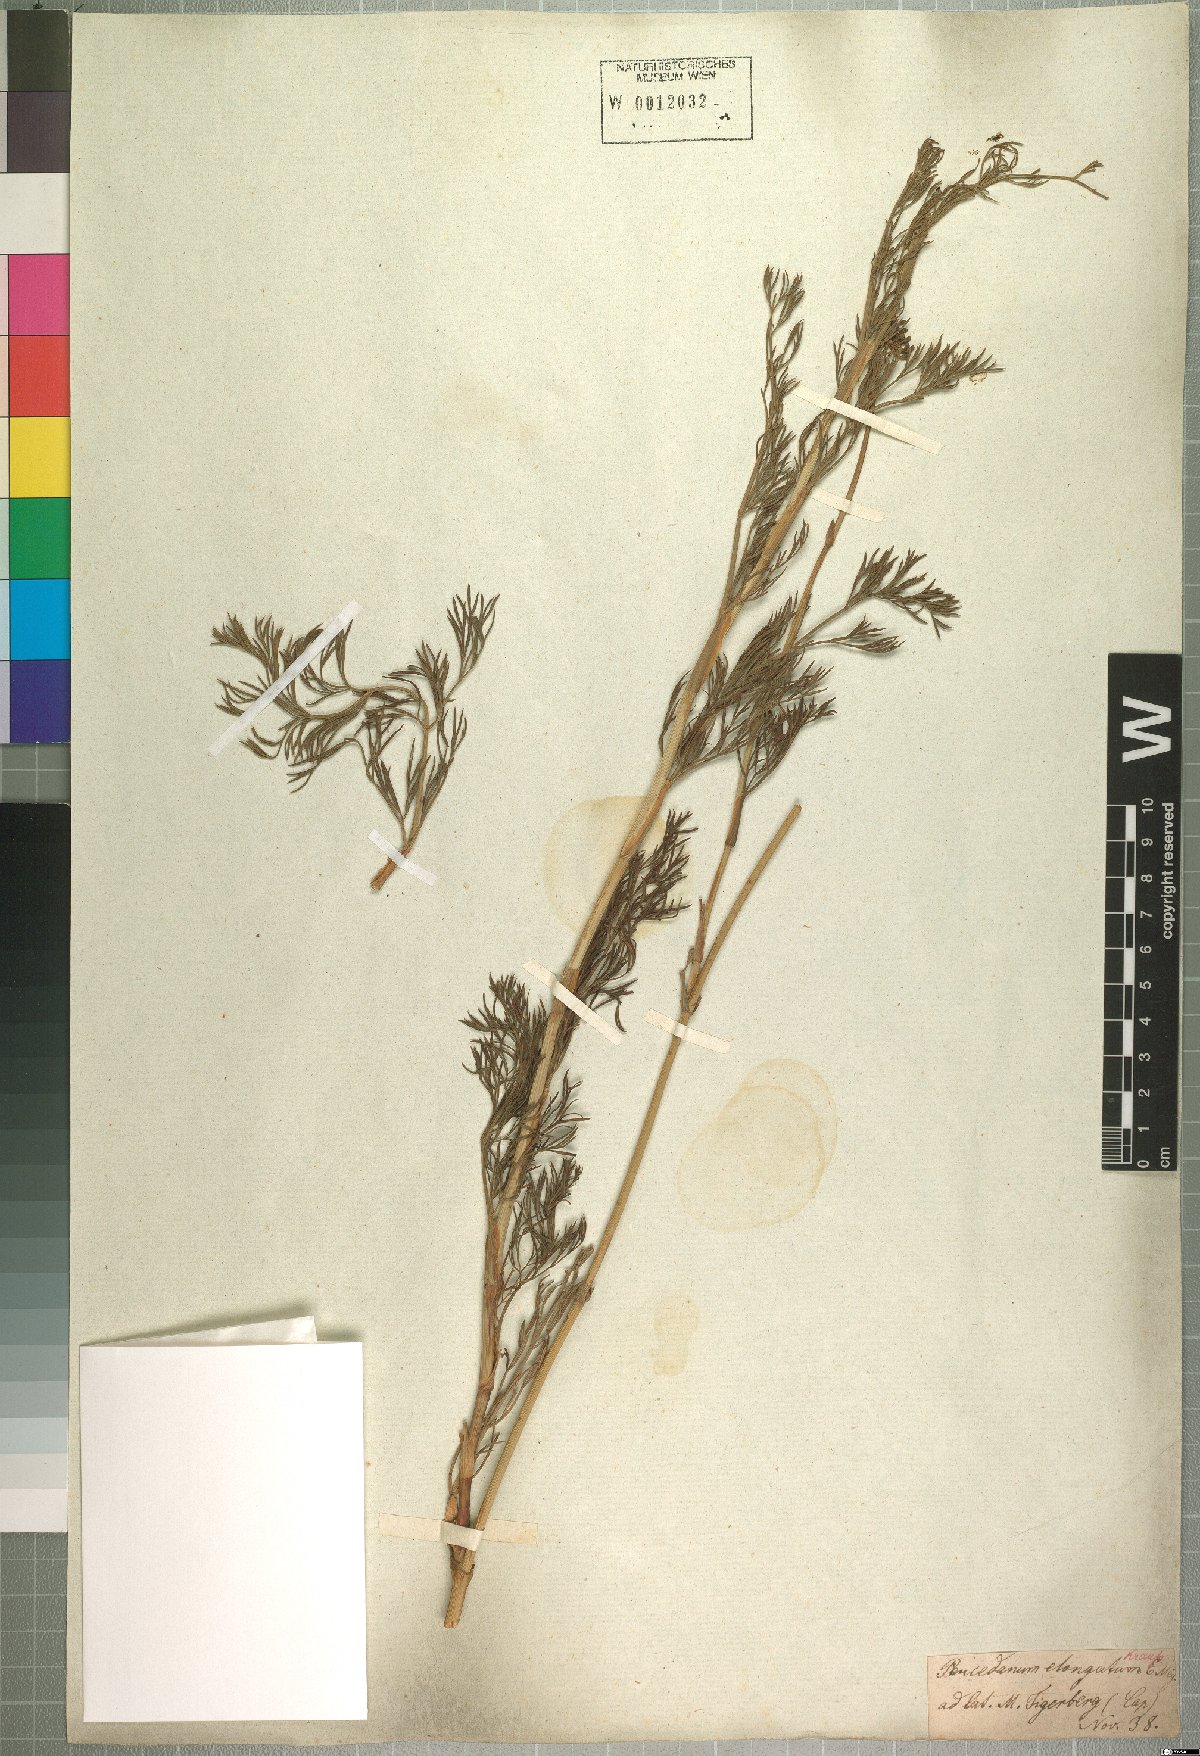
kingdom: Plantae
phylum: Tracheophyta
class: Magnoliopsida
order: Apiales
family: Apiaceae
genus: Notobubon
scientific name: Notobubon ferulaceum
